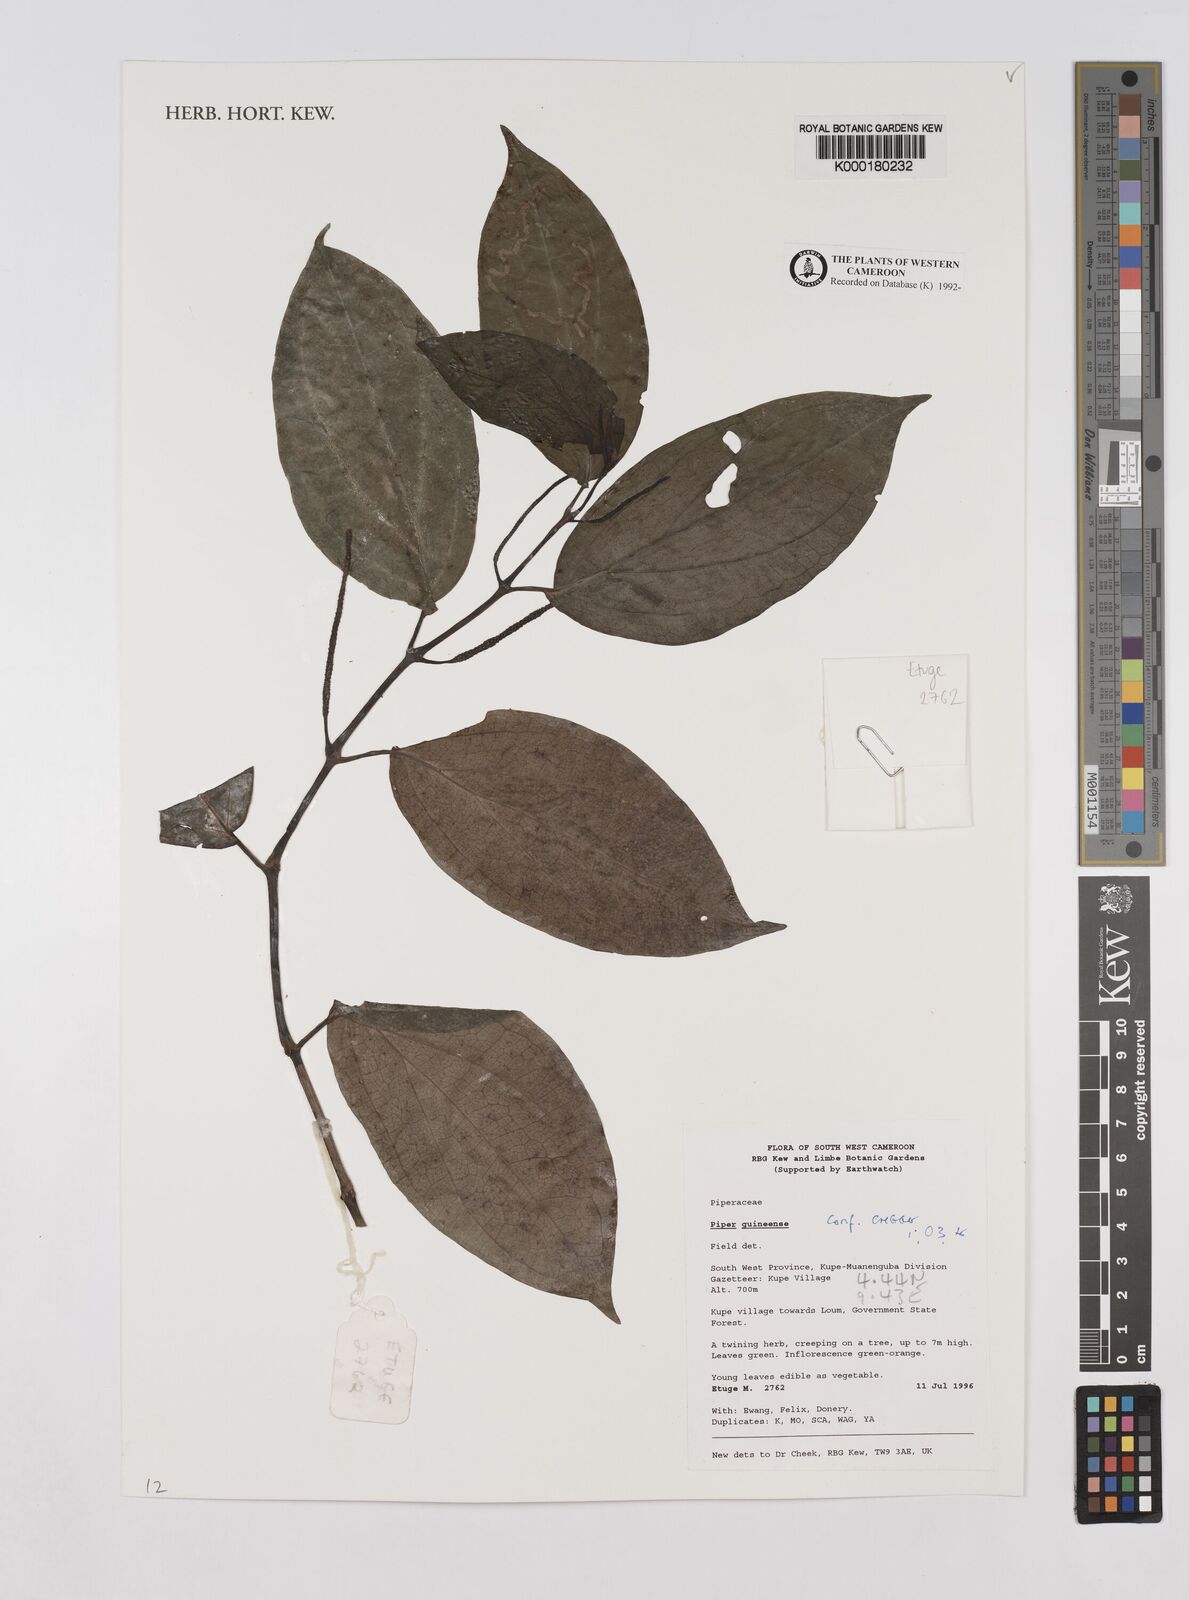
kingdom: Plantae
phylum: Tracheophyta
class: Magnoliopsida
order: Piperales
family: Piperaceae
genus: Piper
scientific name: Piper guineense
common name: Benin pepper
